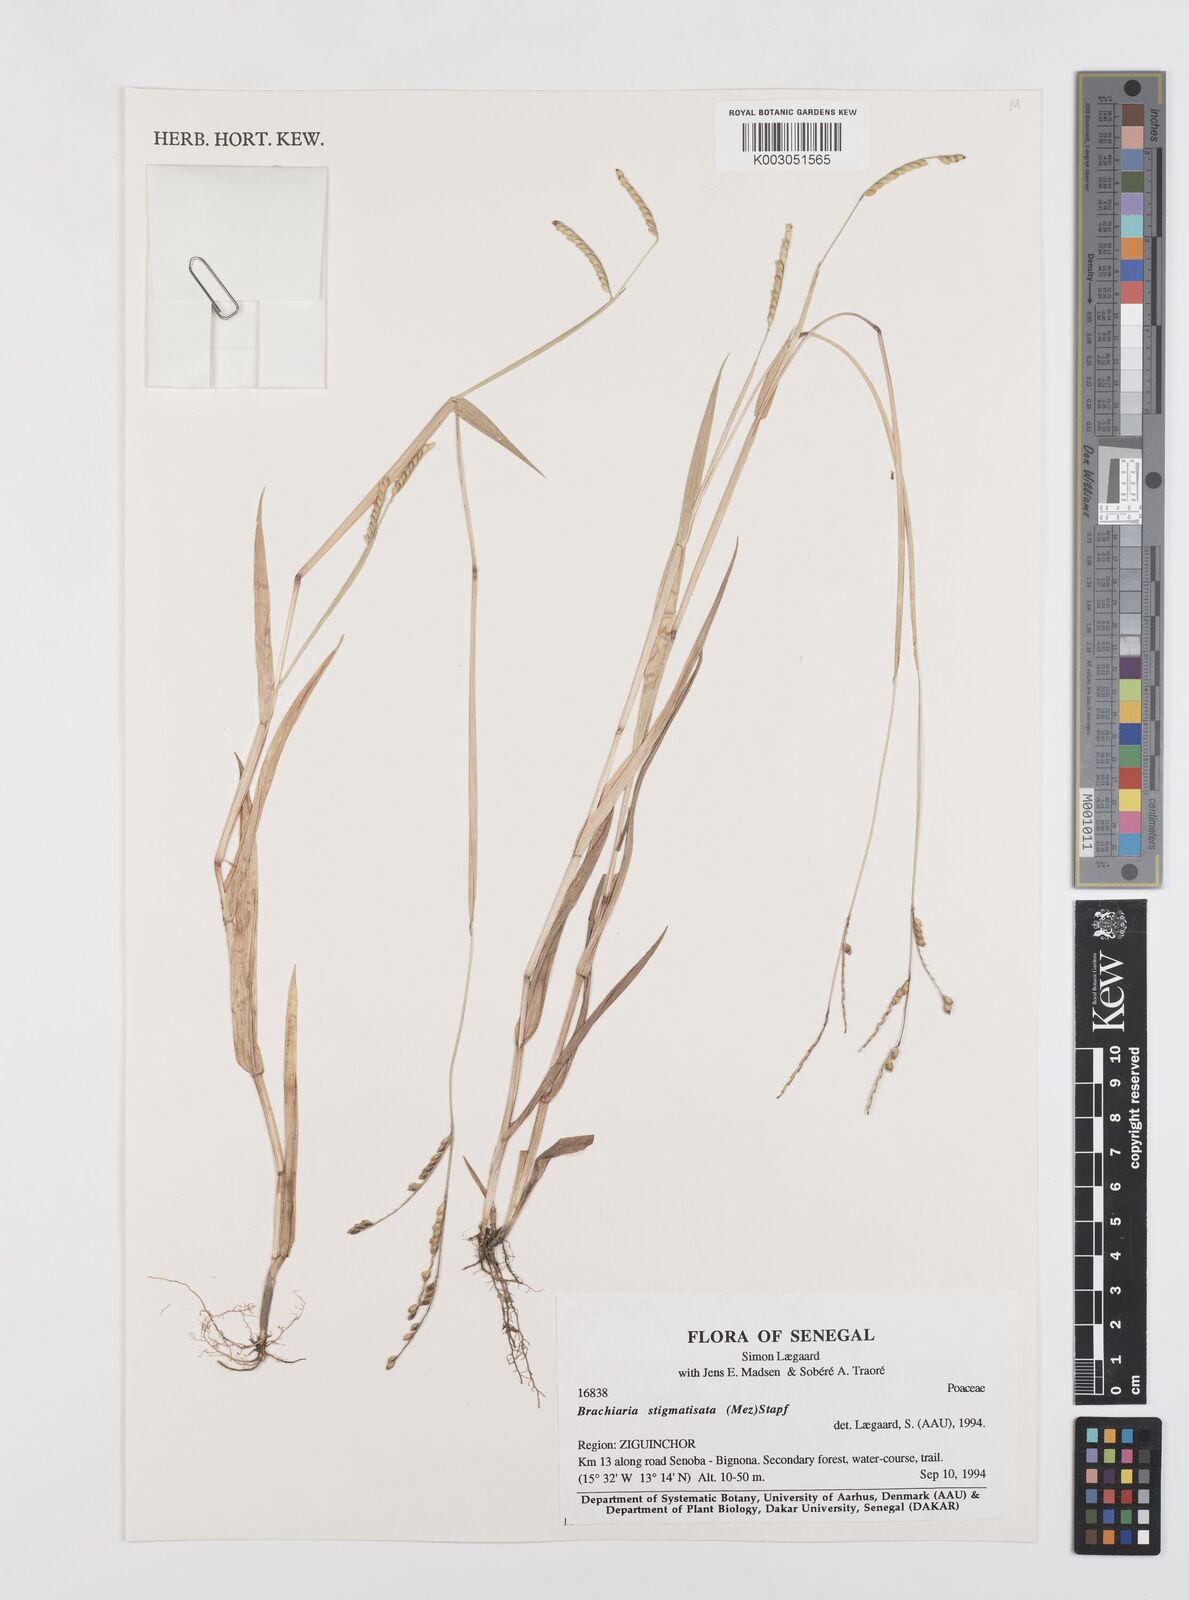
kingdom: Plantae
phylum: Tracheophyta
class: Liliopsida
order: Poales
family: Poaceae
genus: Urochloa
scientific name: Urochloa stigmatisata
